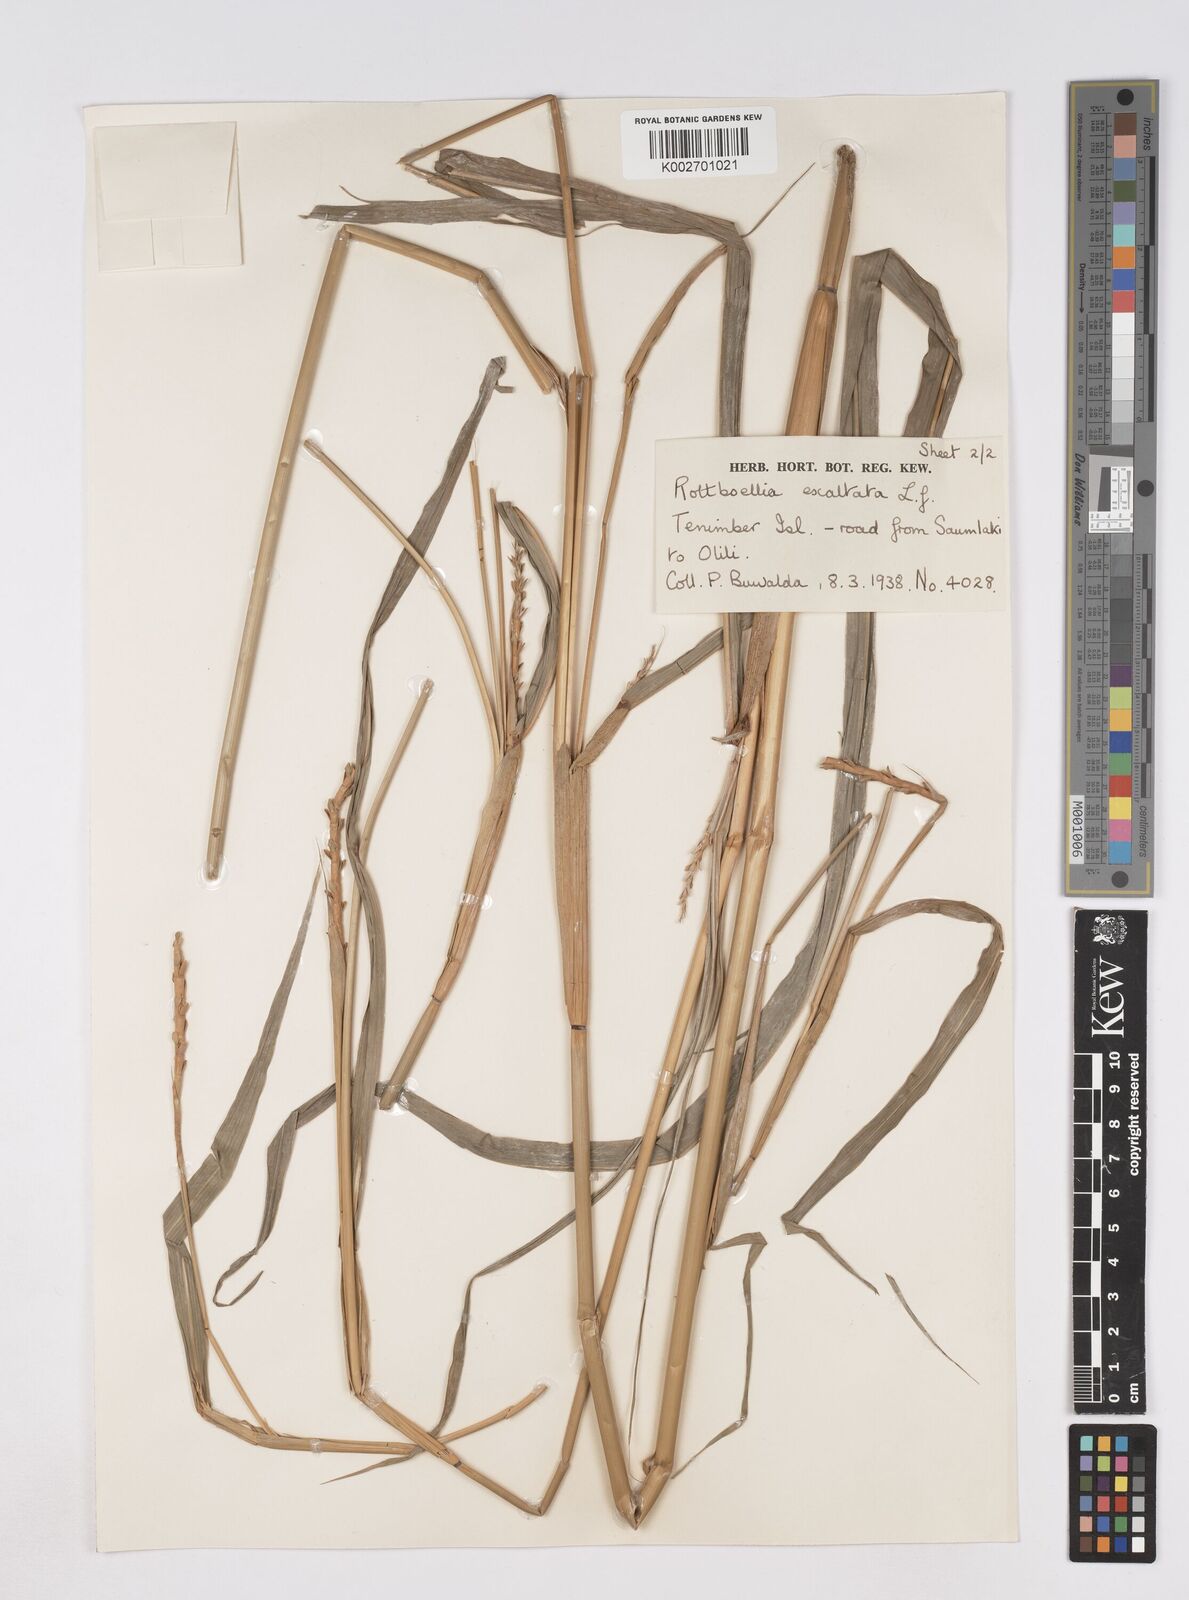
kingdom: Plantae
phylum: Tracheophyta
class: Liliopsida
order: Poales
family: Poaceae
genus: Ophiuros
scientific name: Ophiuros exaltatus
